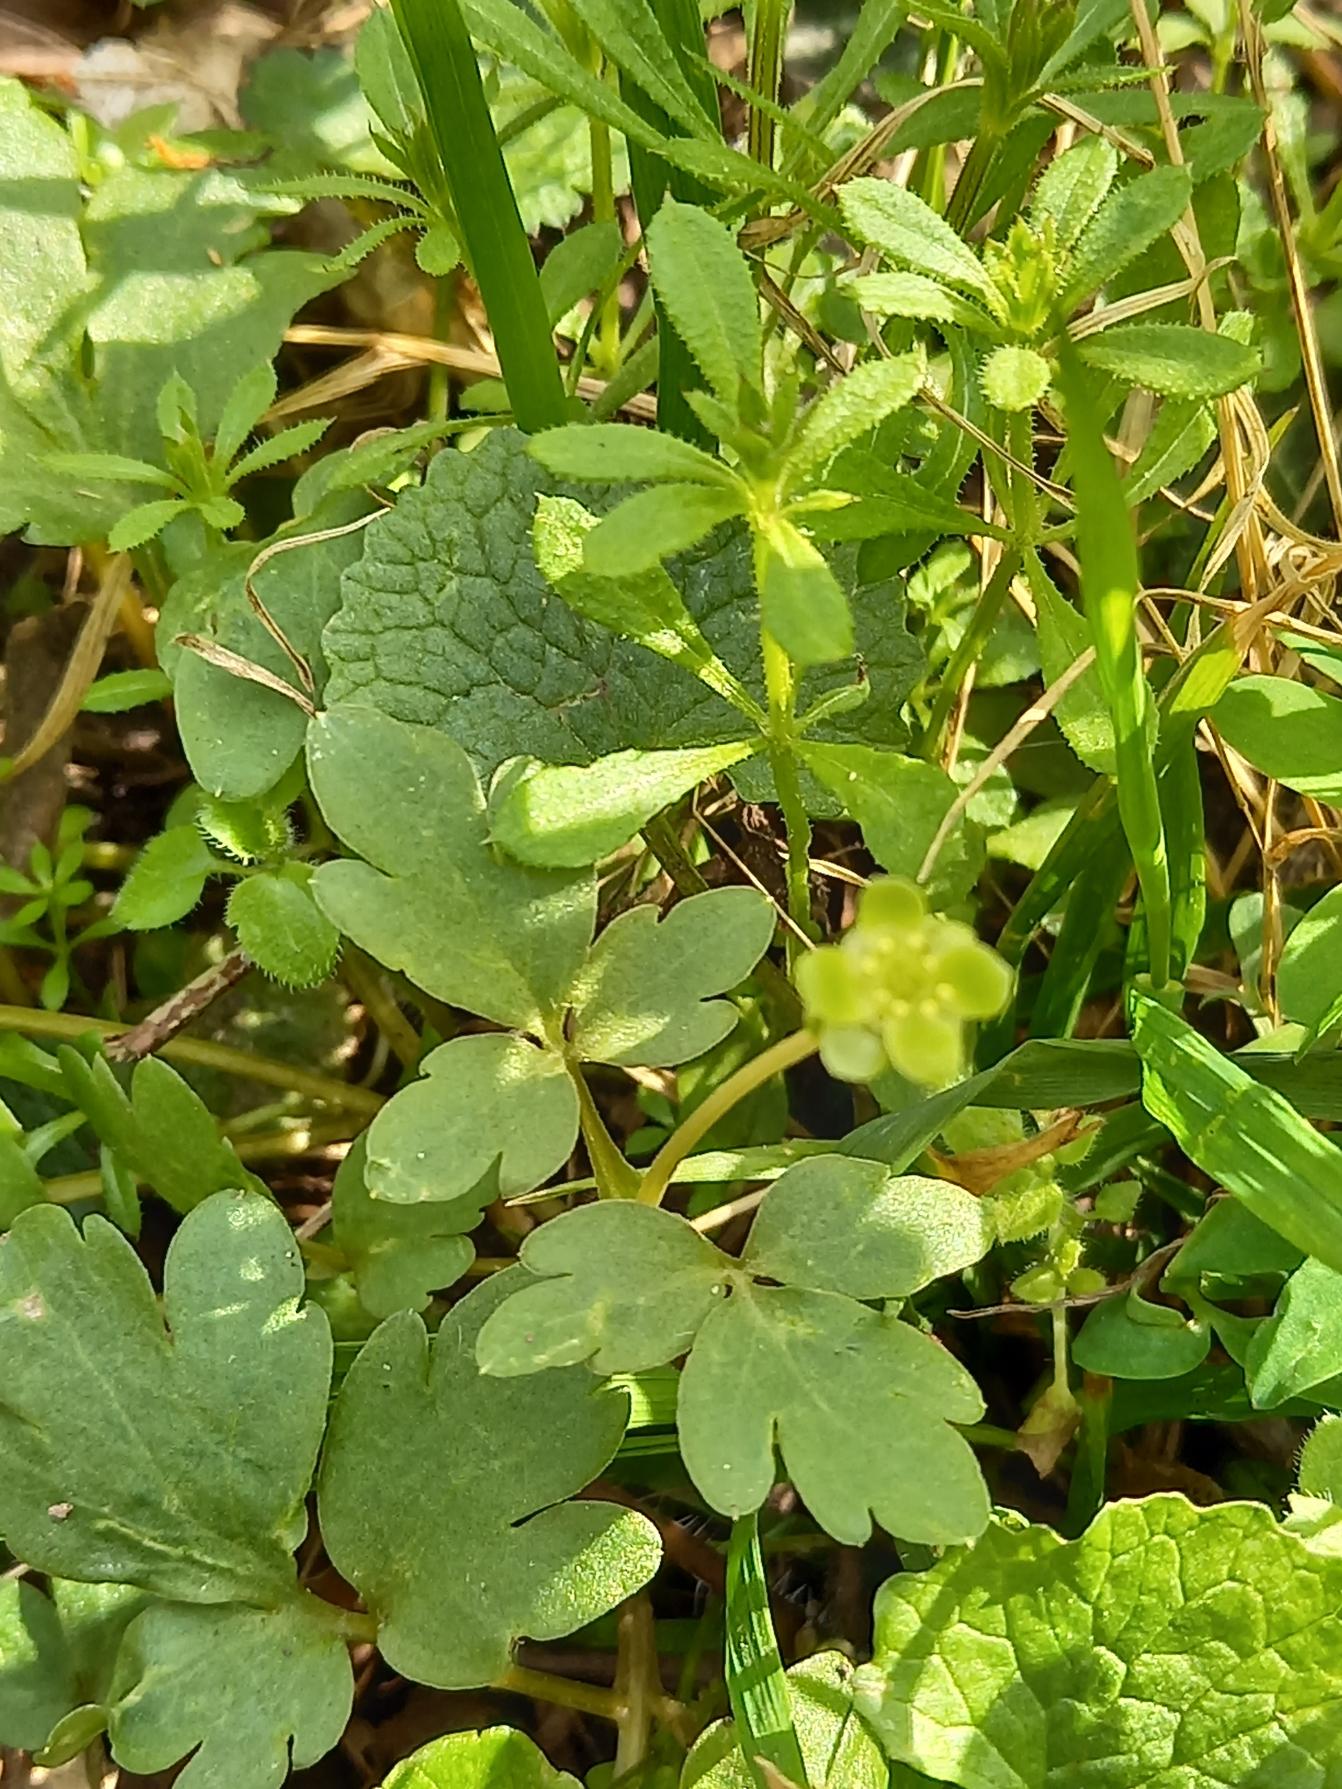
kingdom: Plantae
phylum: Tracheophyta
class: Magnoliopsida
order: Dipsacales
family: Viburnaceae
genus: Adoxa
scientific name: Adoxa moschatellina
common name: Desmerurt
